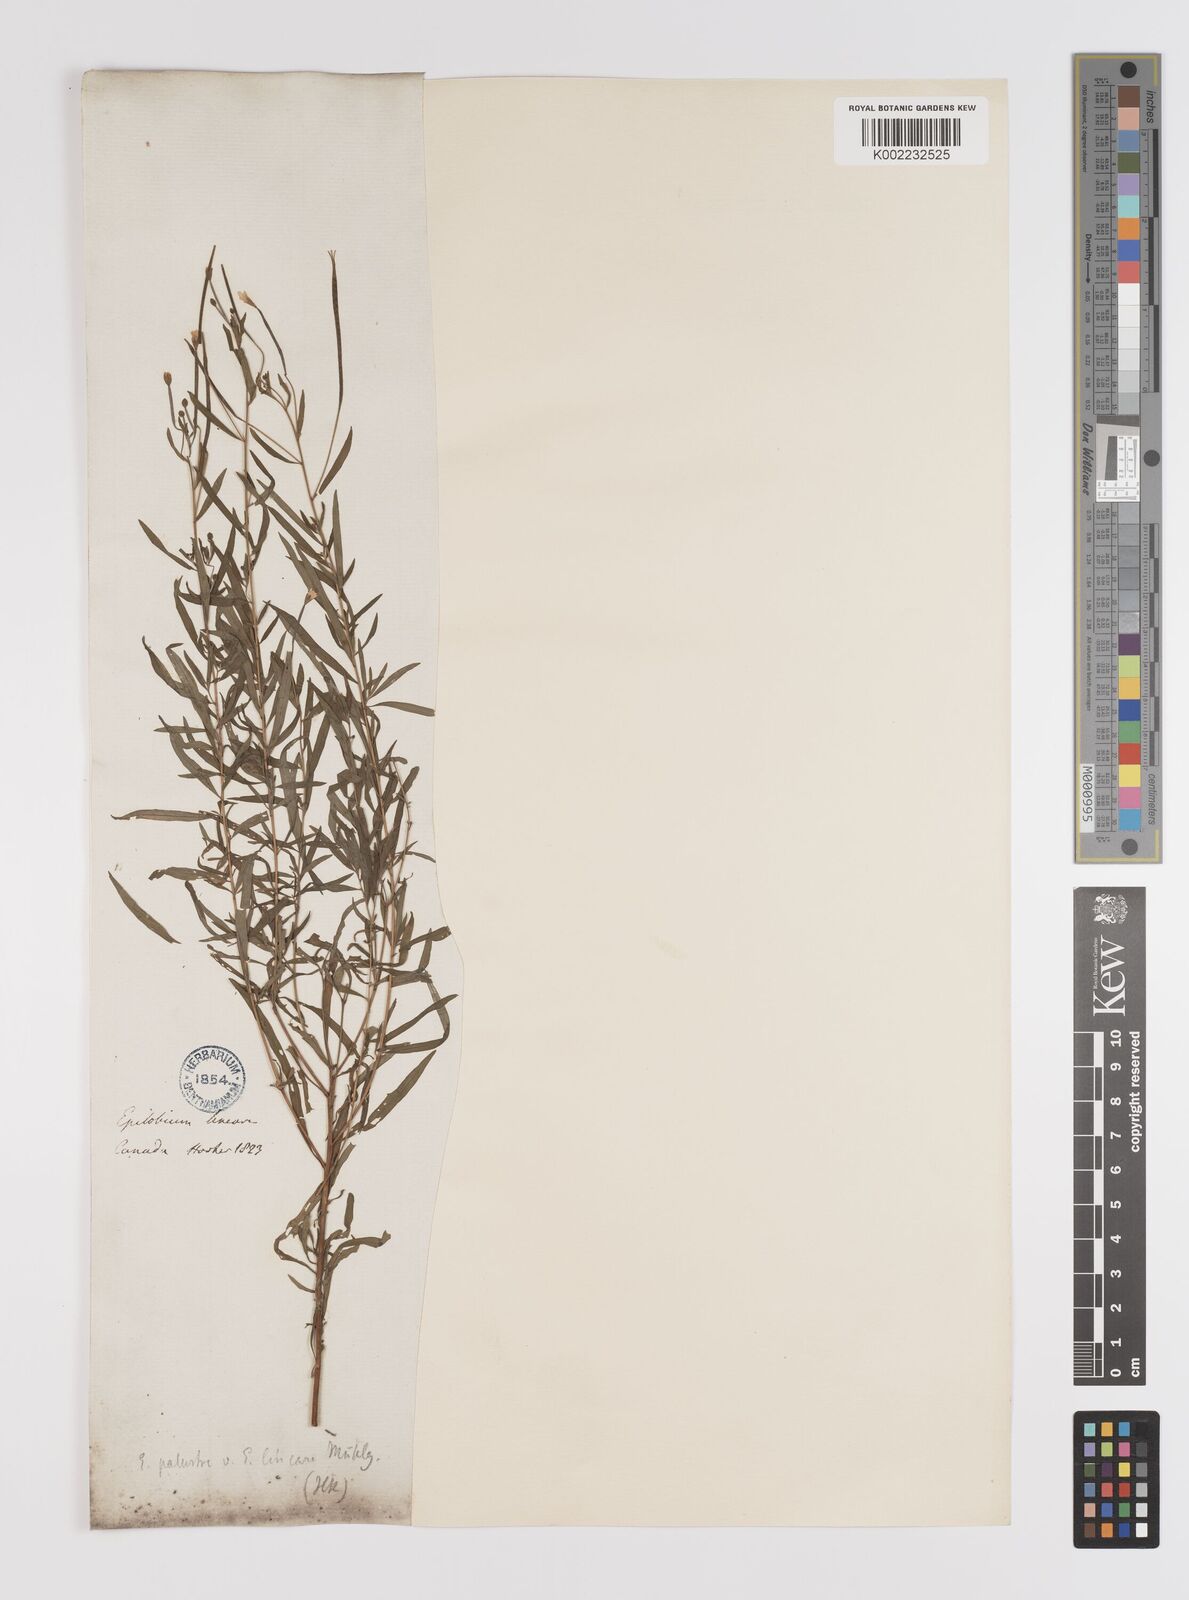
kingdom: Plantae
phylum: Tracheophyta
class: Magnoliopsida
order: Myrtales
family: Onagraceae
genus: Epilobium
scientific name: Epilobium palustre
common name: Marsh willowherb
